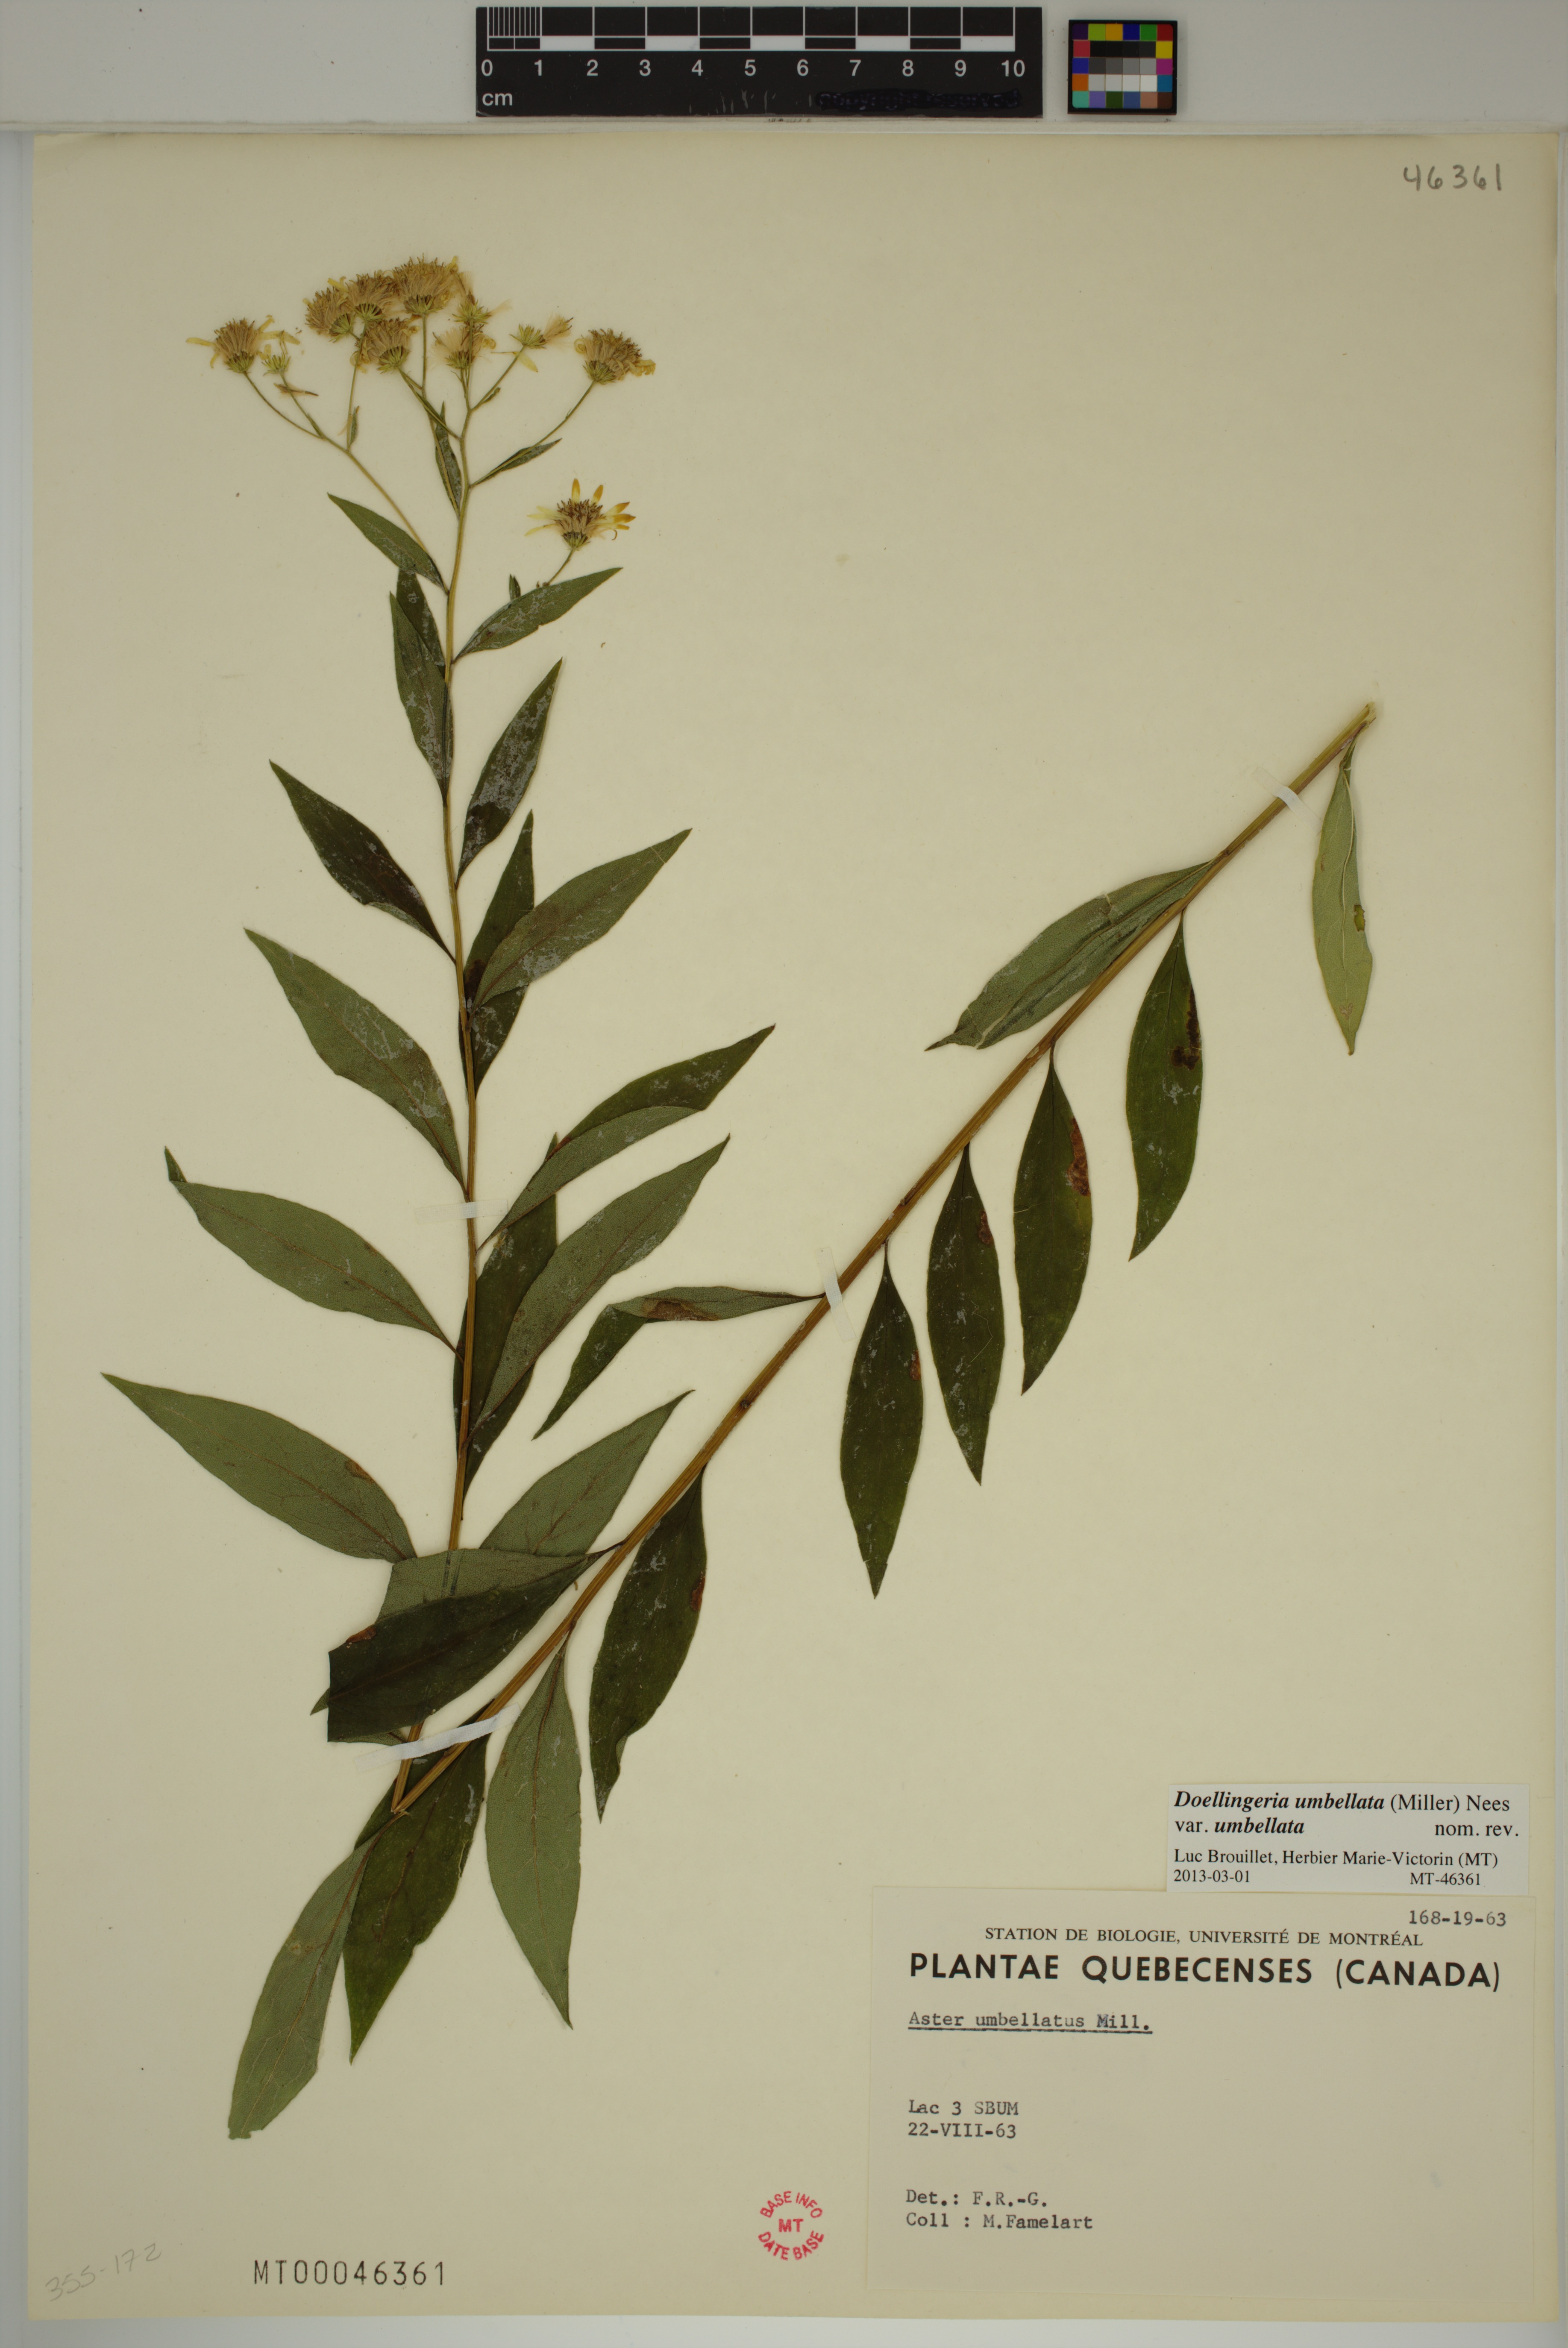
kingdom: Plantae
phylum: Tracheophyta
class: Magnoliopsida
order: Asterales
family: Asteraceae
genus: Doellingeria
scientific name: Doellingeria umbellata
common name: Flat-top white aster
